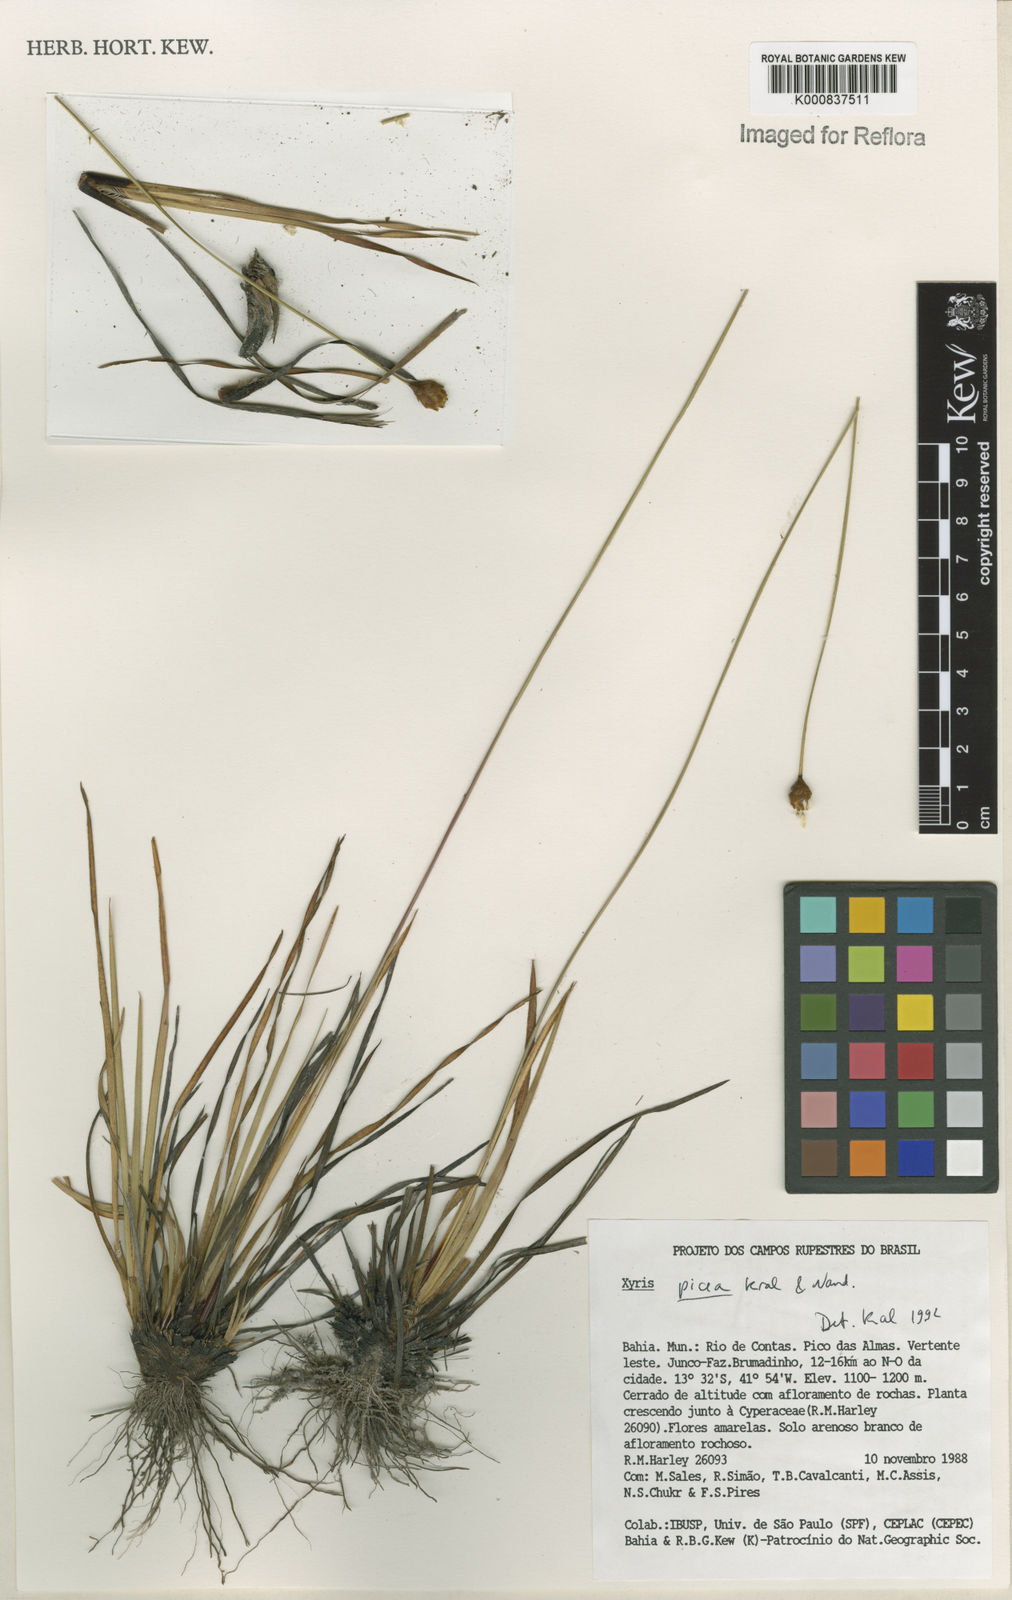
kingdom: Plantae
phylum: Tracheophyta
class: Liliopsida
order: Poales
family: Xyridaceae
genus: Xyris
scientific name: Xyris picea
